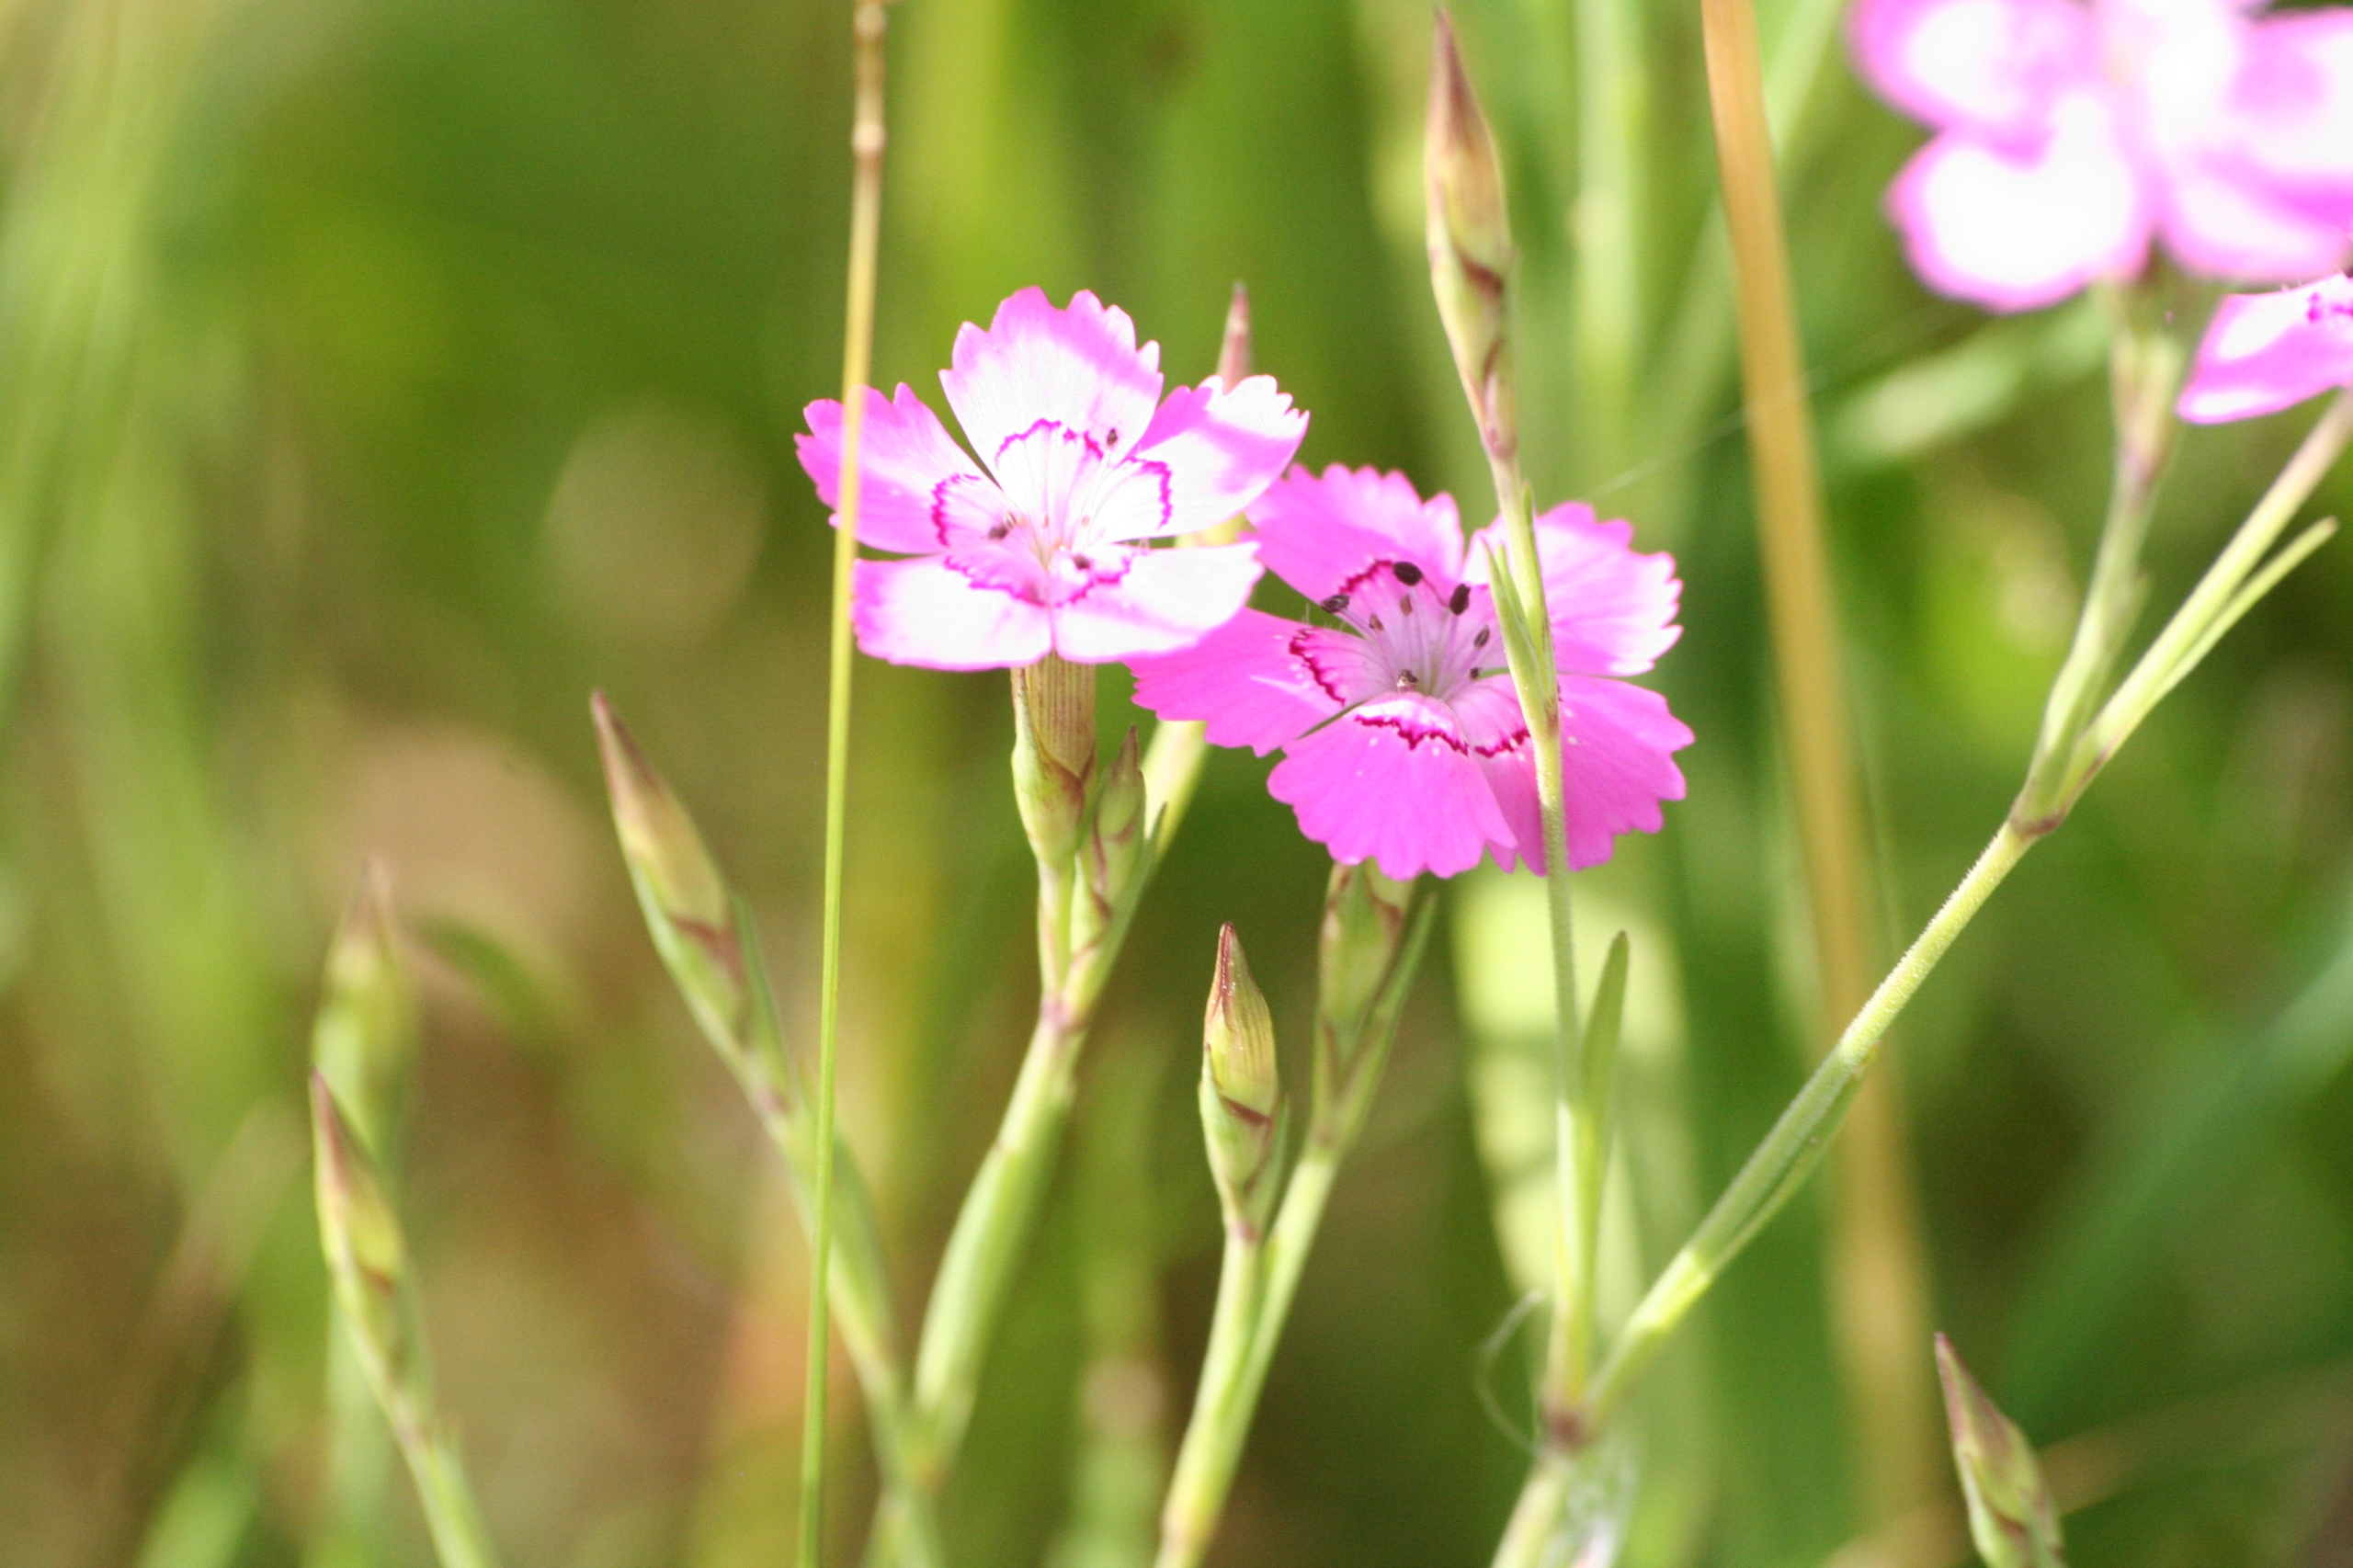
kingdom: Plantae
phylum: Tracheophyta
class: Magnoliopsida
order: Caryophyllales
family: Caryophyllaceae
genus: Dianthus
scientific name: Dianthus deltoides
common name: Bakke-nellike
